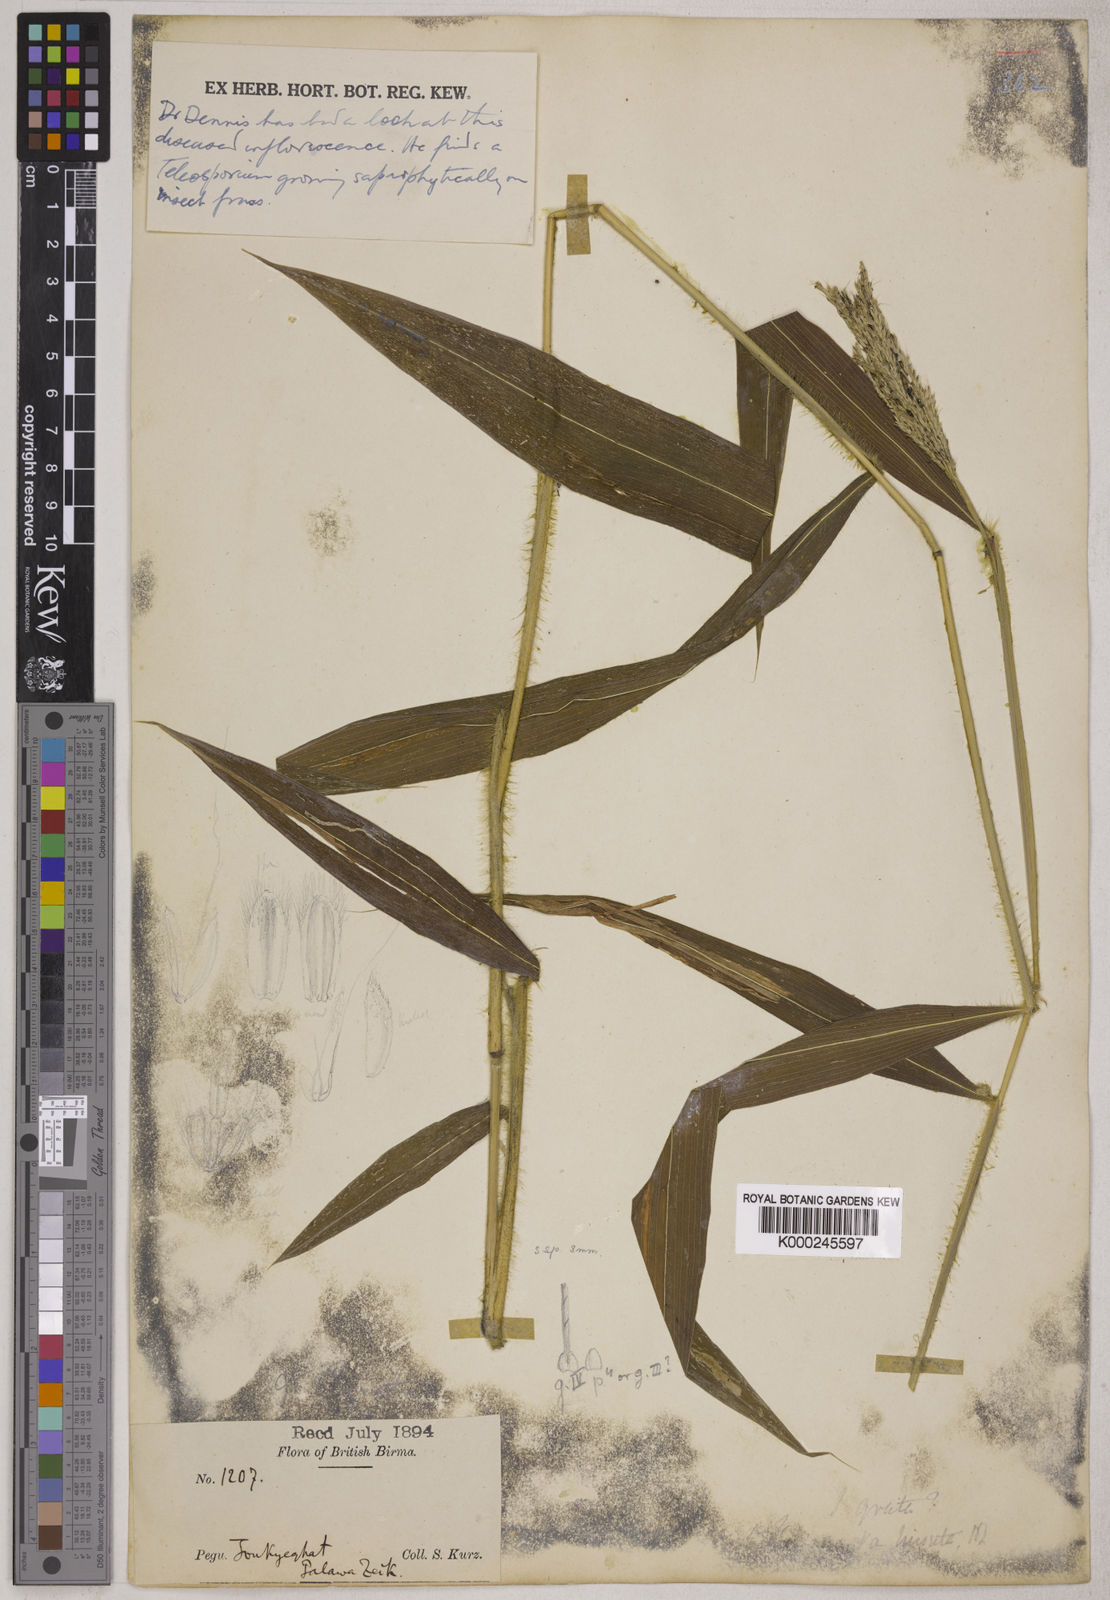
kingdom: Plantae
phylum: Tracheophyta
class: Liliopsida
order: Poales
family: Poaceae
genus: Microstegium
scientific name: Microstegium fasciculatum
